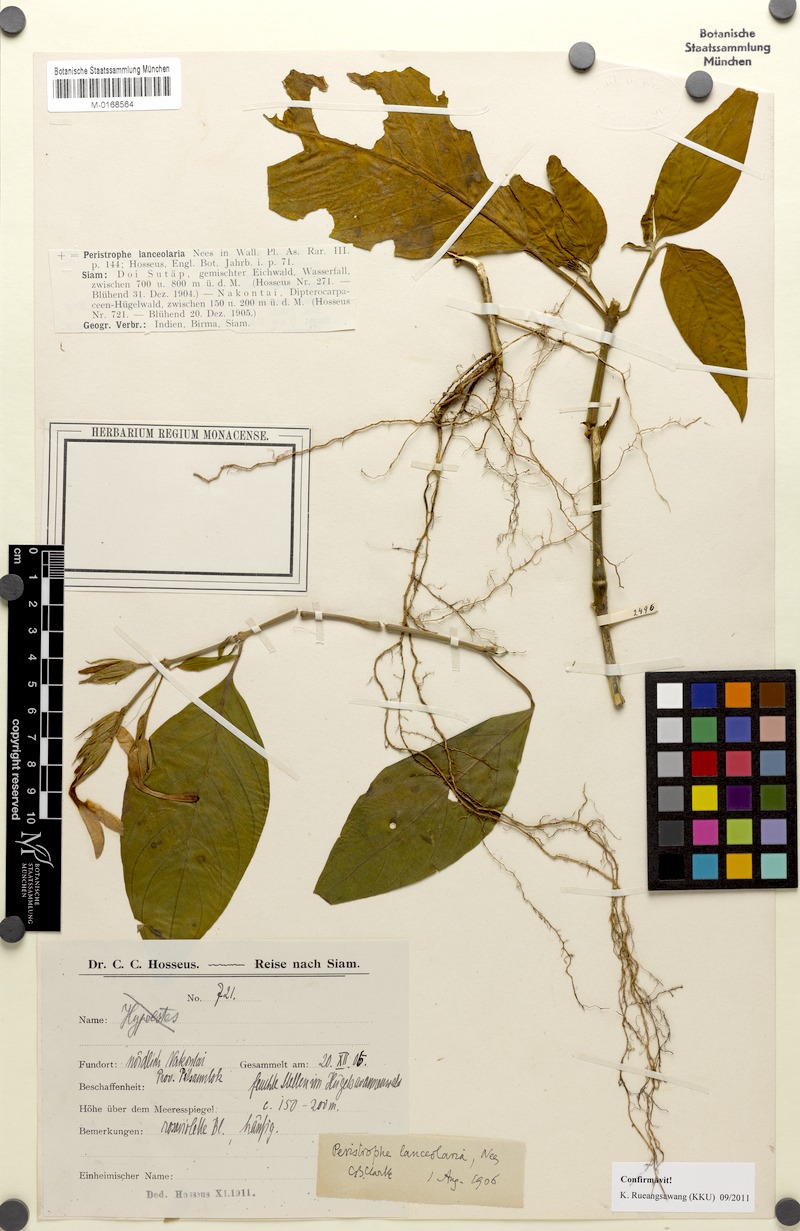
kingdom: Plantae
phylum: Tracheophyta
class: Magnoliopsida
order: Lamiales
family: Acanthaceae
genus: Dicliptera
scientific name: Dicliptera lanceolaria
